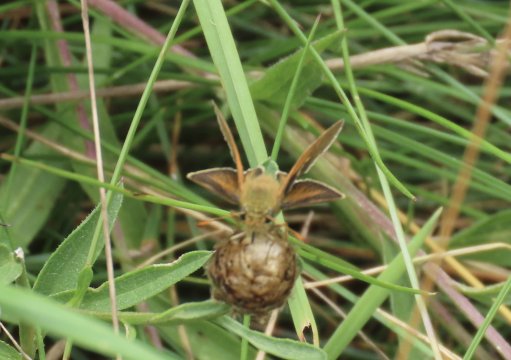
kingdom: Animalia
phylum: Arthropoda
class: Insecta
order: Lepidoptera
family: Hesperiidae
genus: Thymelicus
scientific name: Thymelicus lineola
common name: European Skipper
